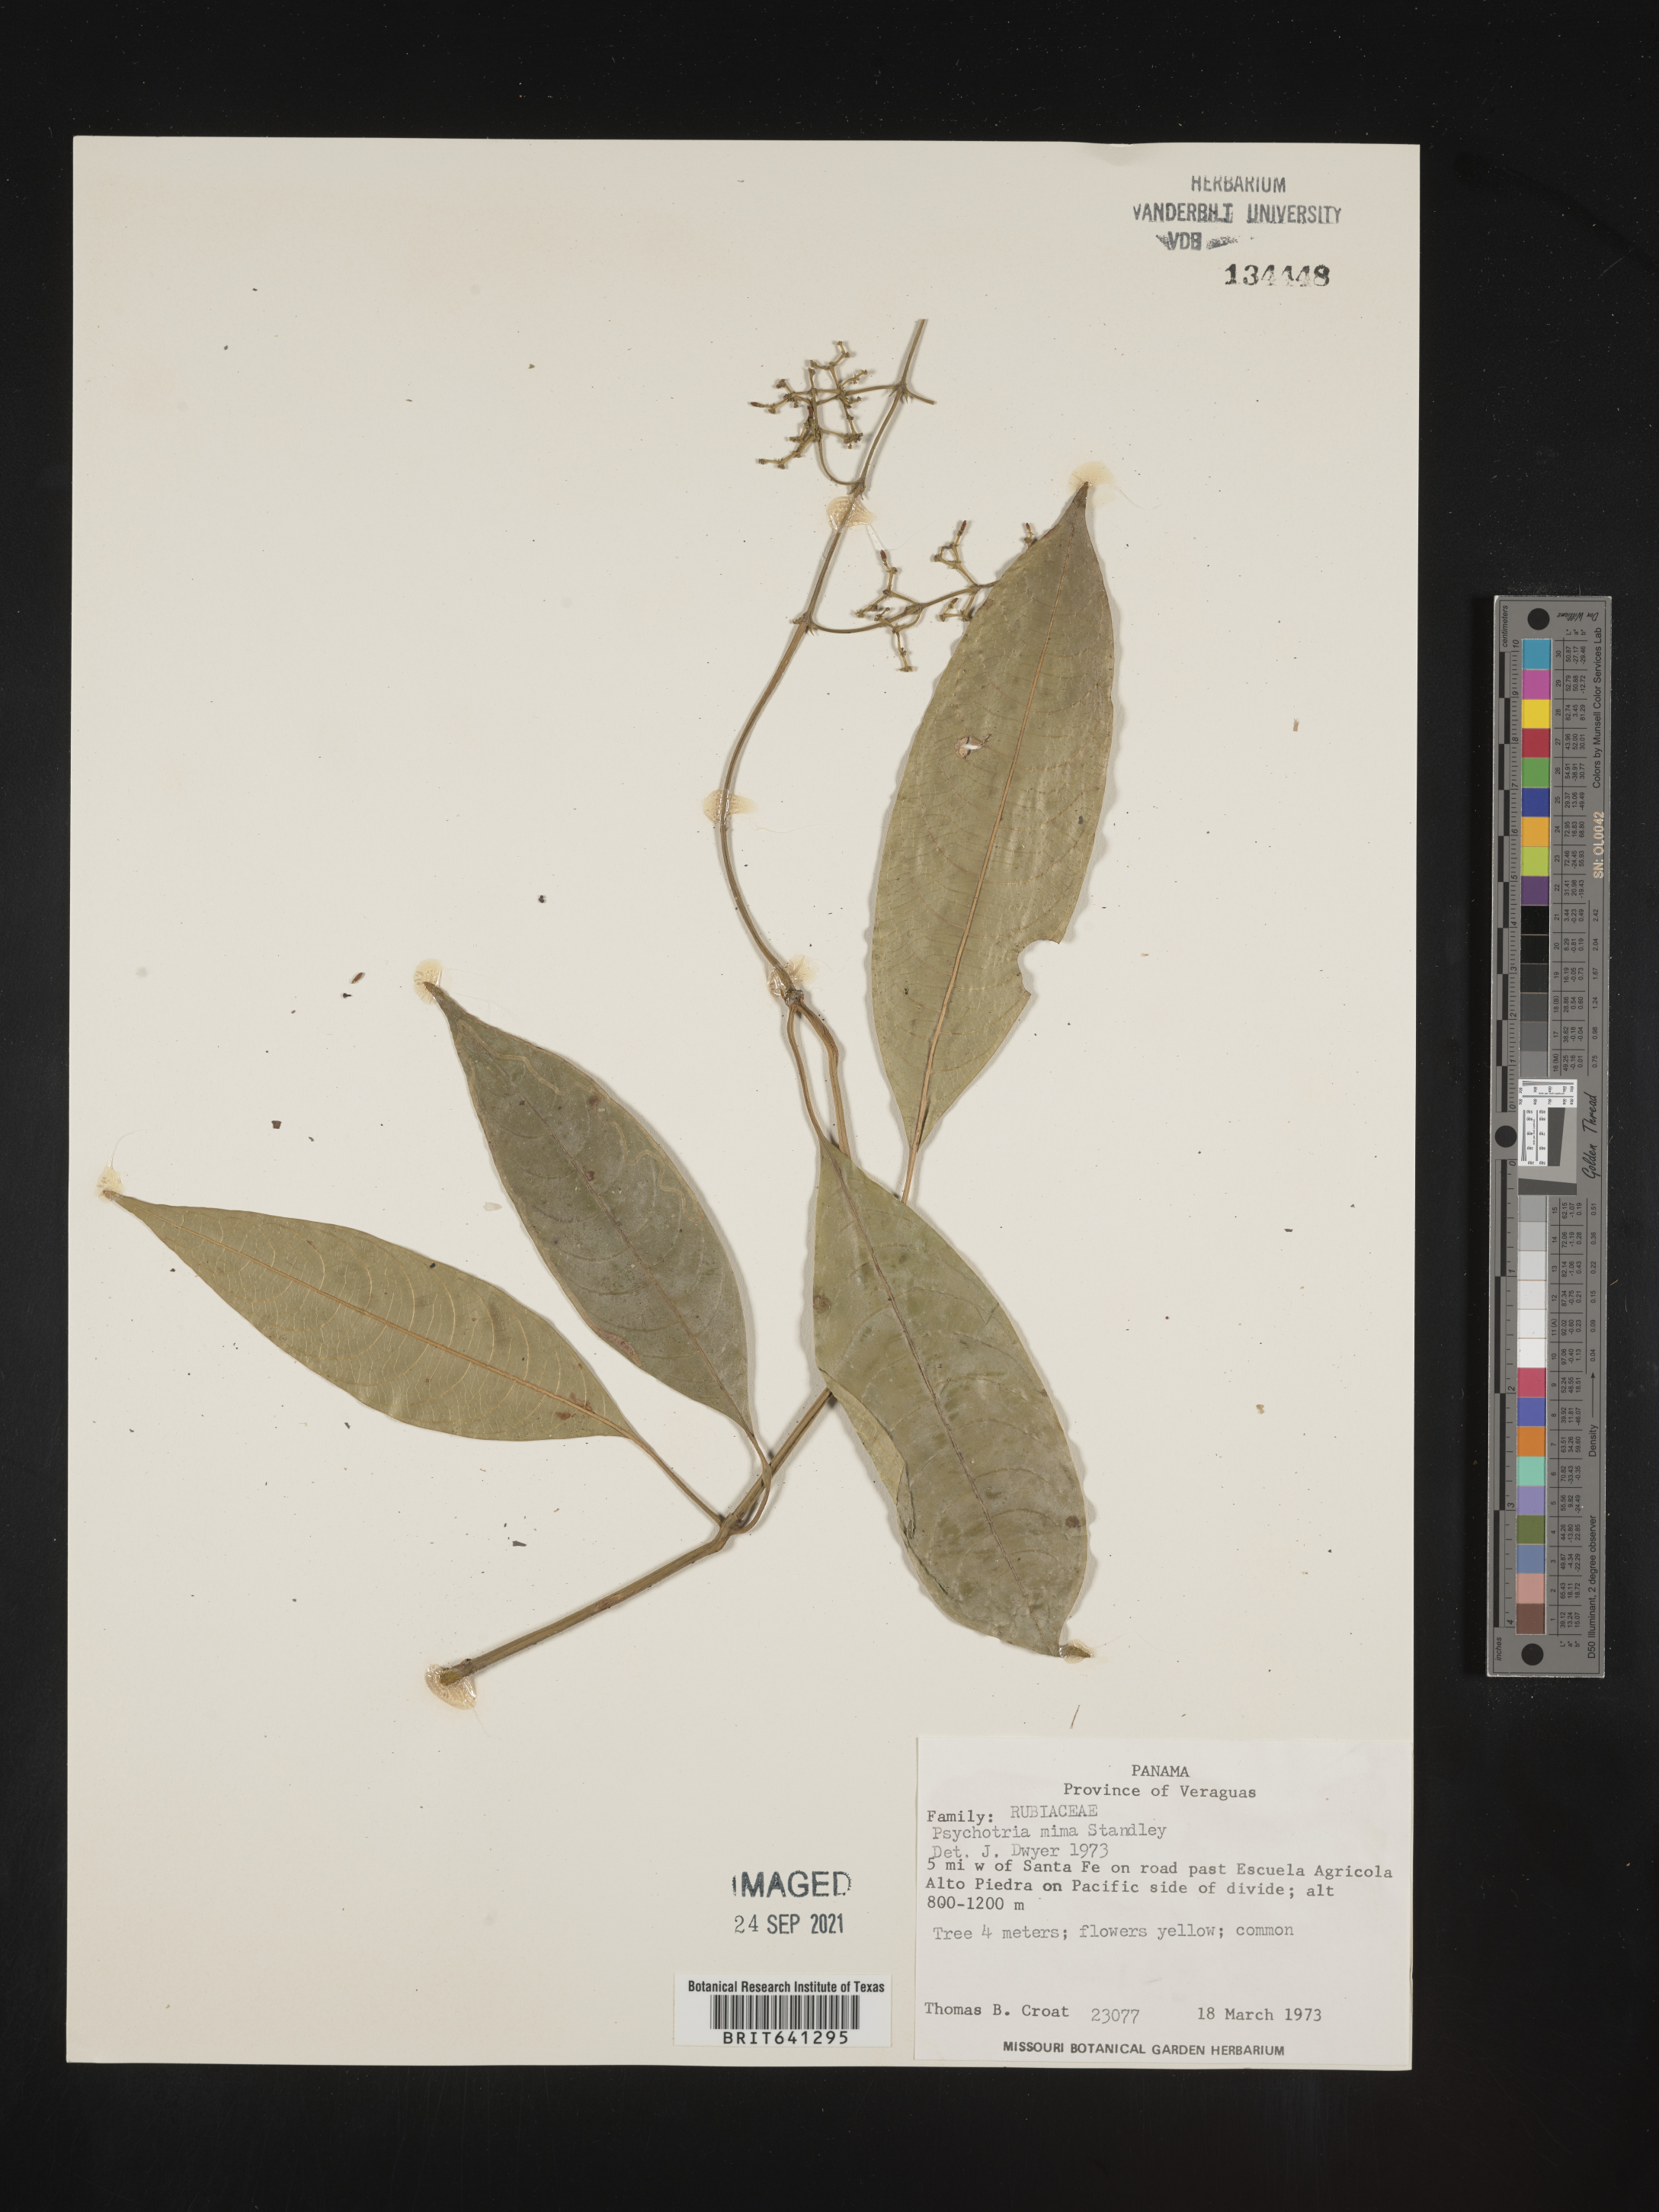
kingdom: Plantae
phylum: Tracheophyta
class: Magnoliopsida
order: Gentianales
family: Rubiaceae
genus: Psychotria
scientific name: Psychotria
